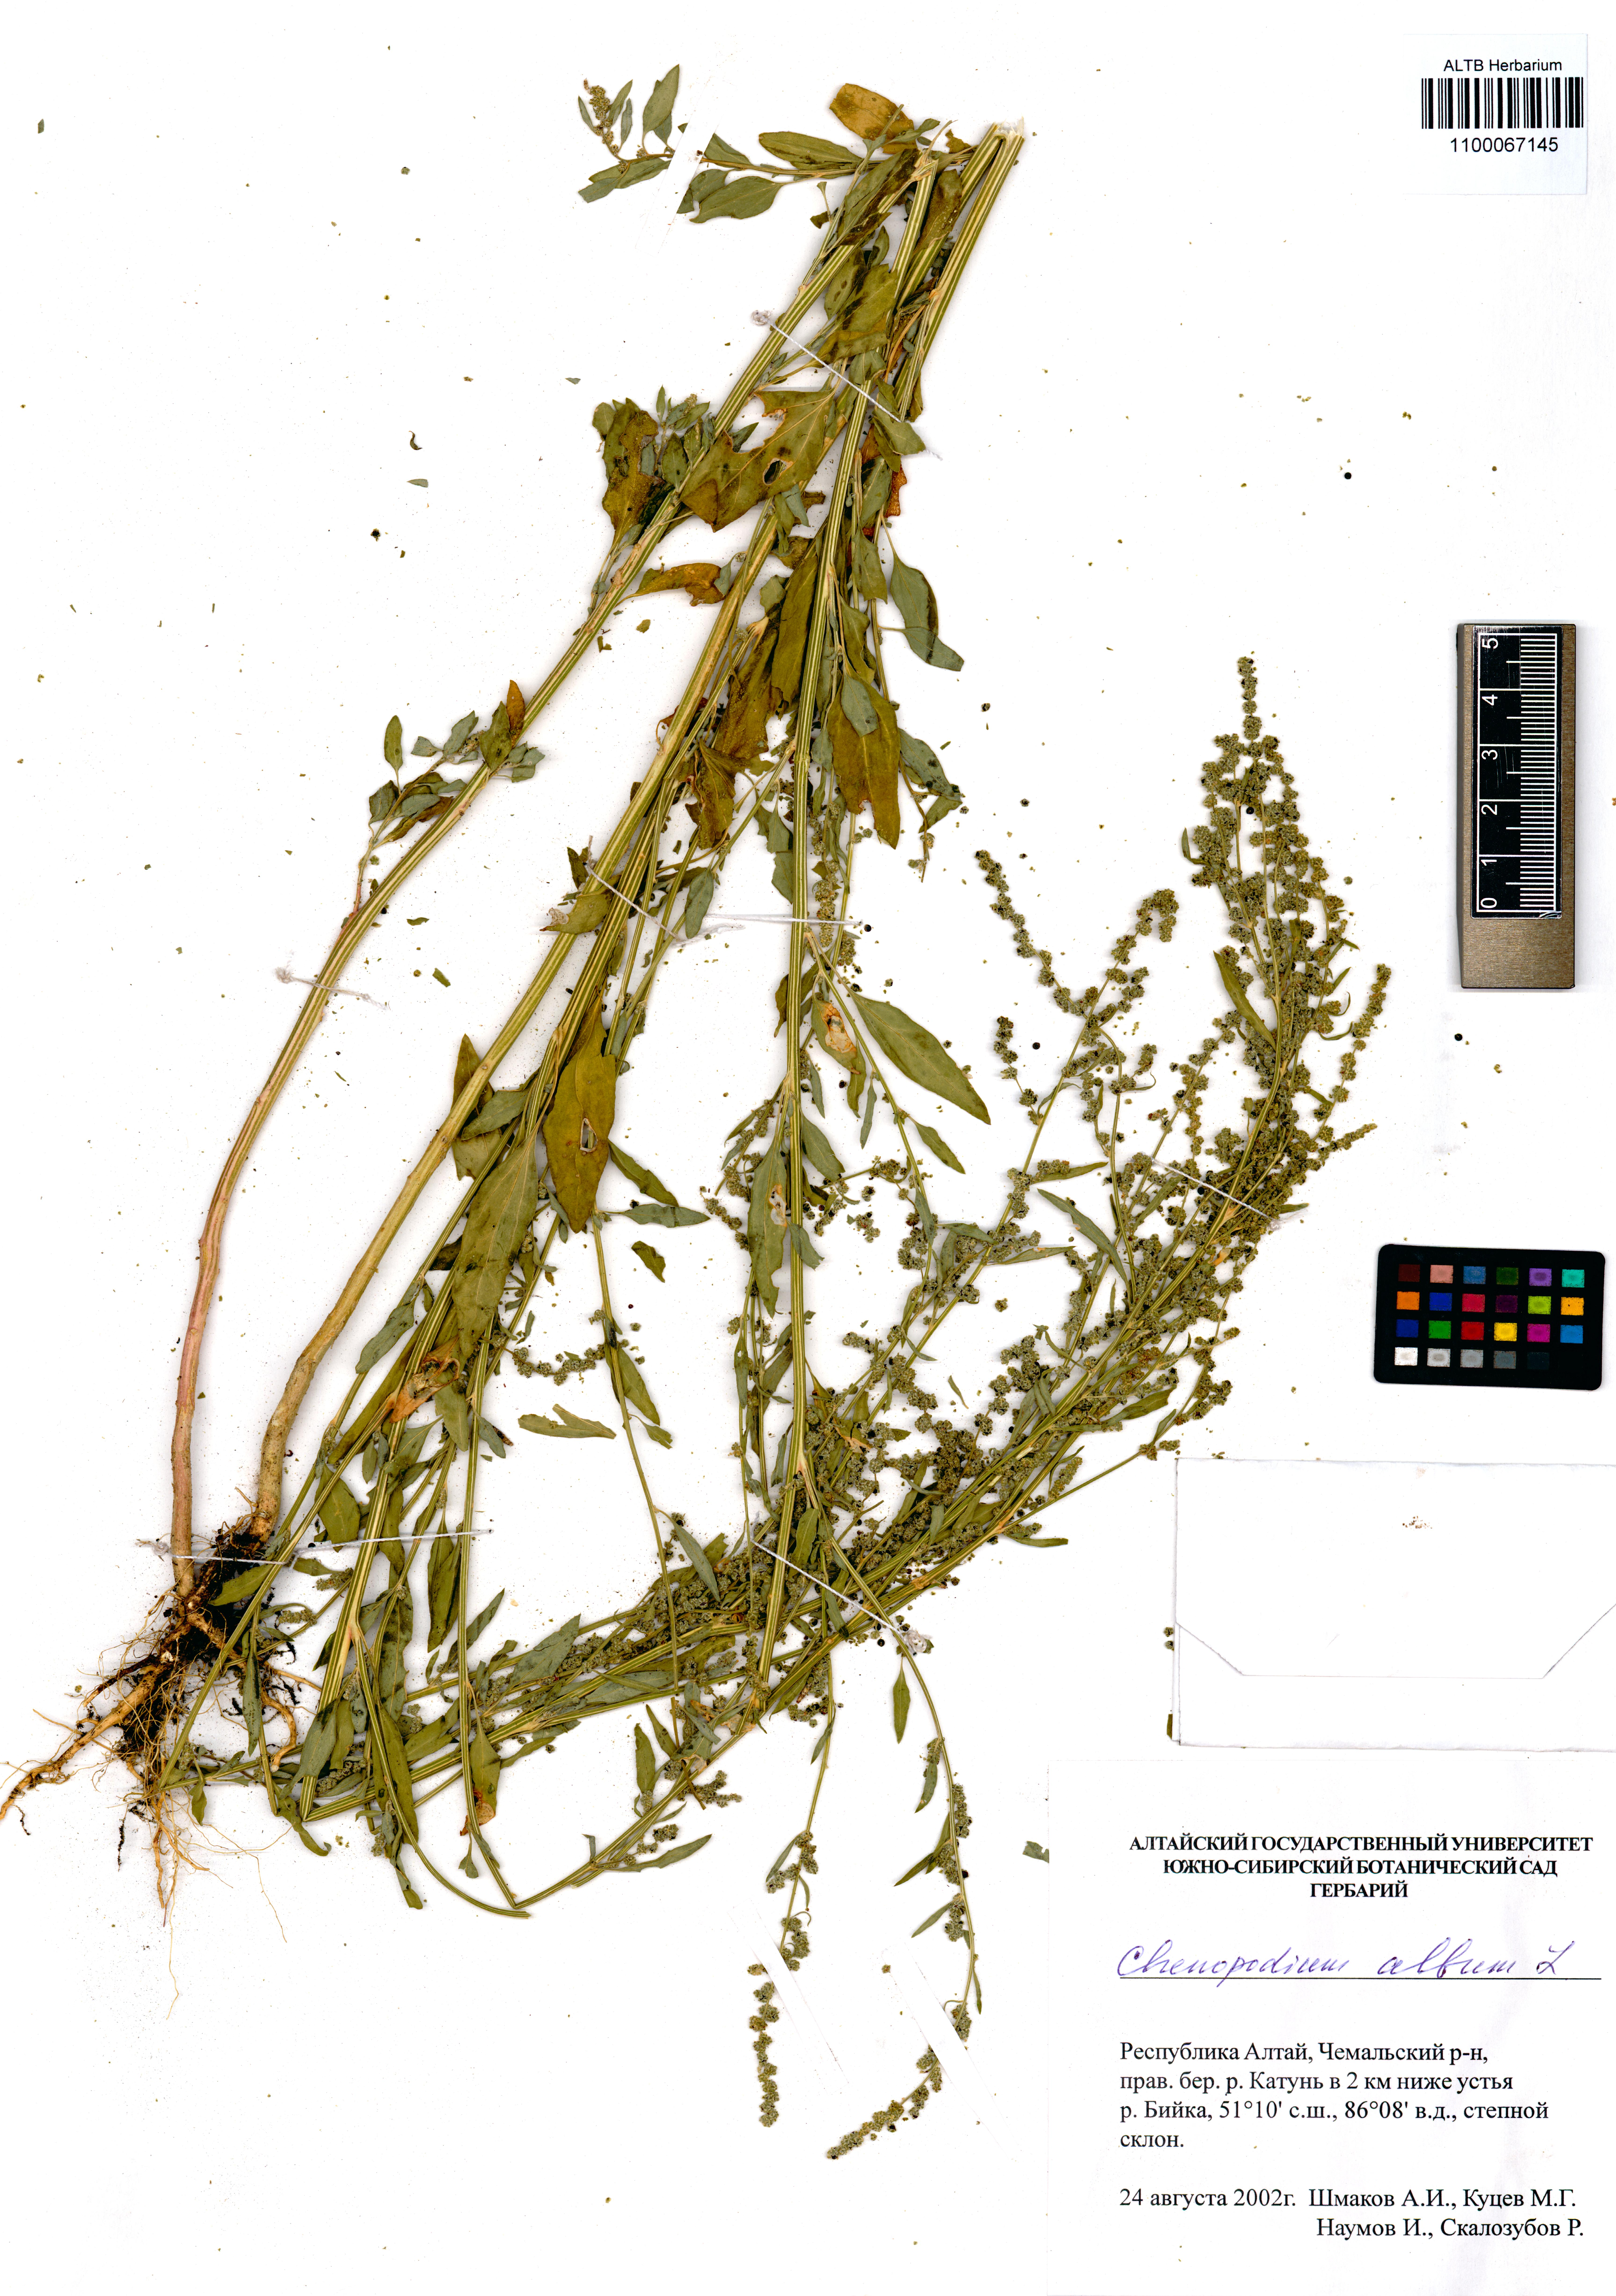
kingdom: Plantae
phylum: Tracheophyta
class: Magnoliopsida
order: Caryophyllales
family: Amaranthaceae
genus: Chenopodium
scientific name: Chenopodium album
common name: Fat-hen
